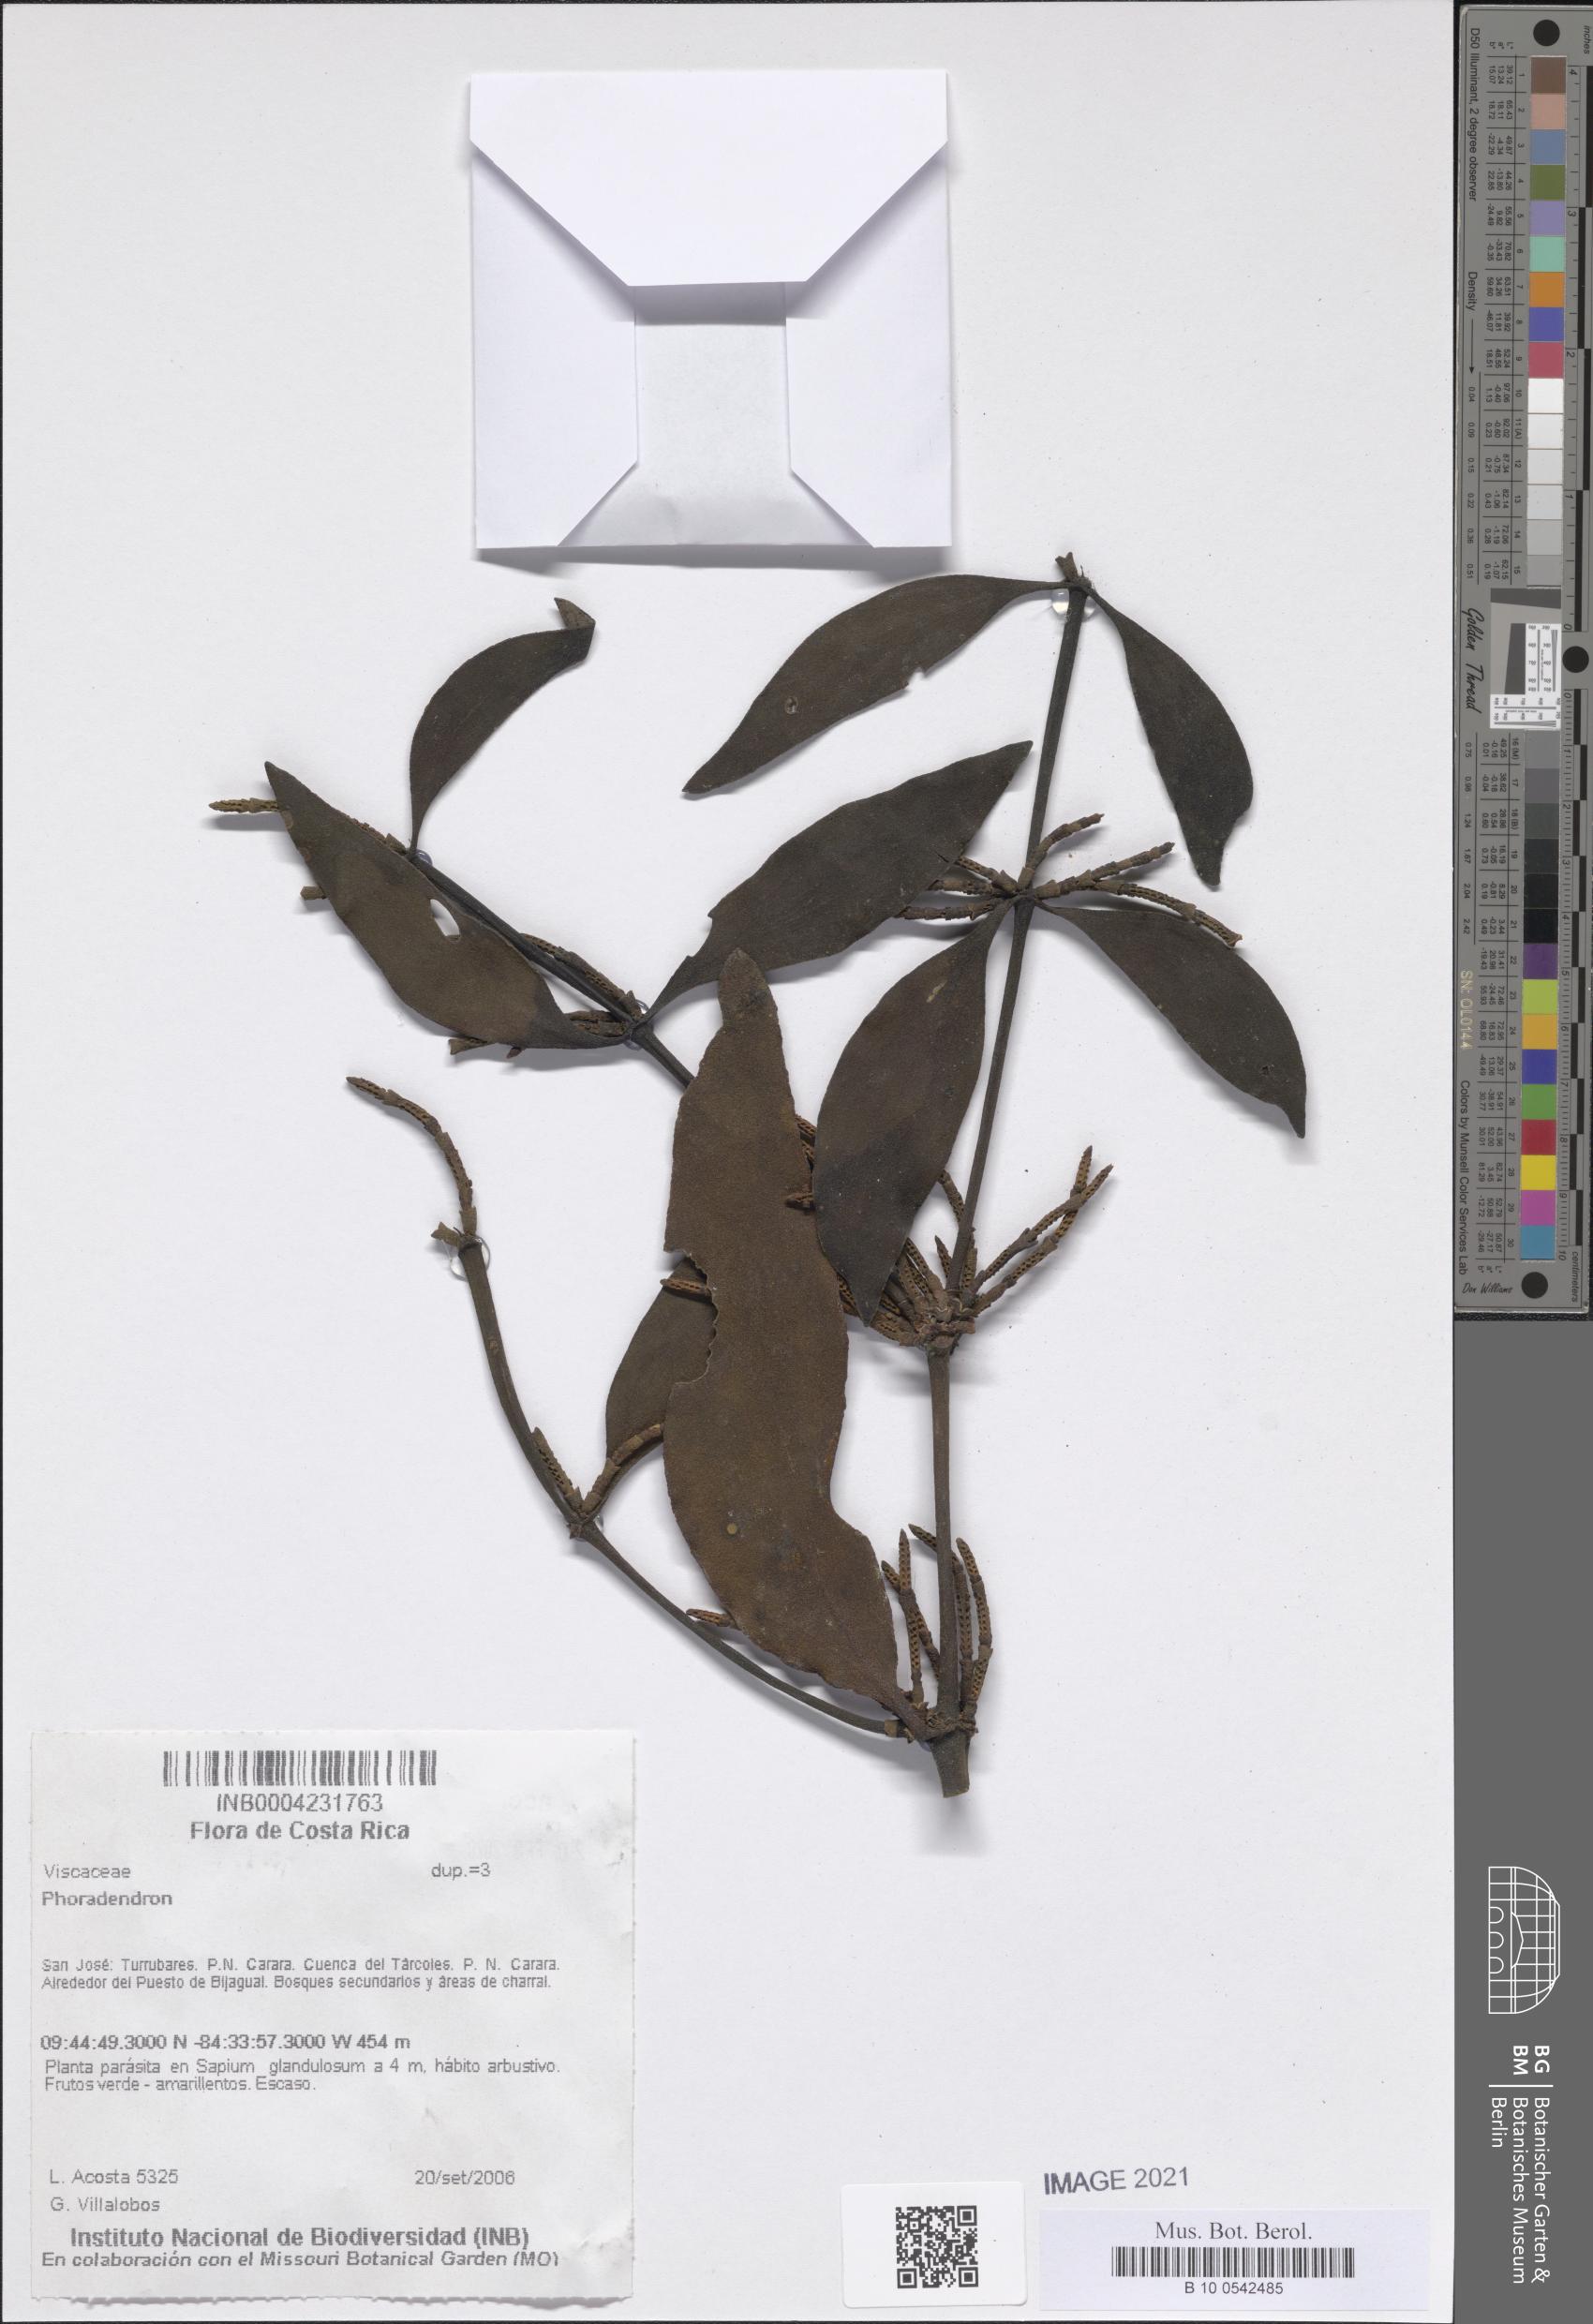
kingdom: Plantae
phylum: Tracheophyta
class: Magnoliopsida
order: Santalales
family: Viscaceae
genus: Phoradendron
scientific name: Phoradendron
